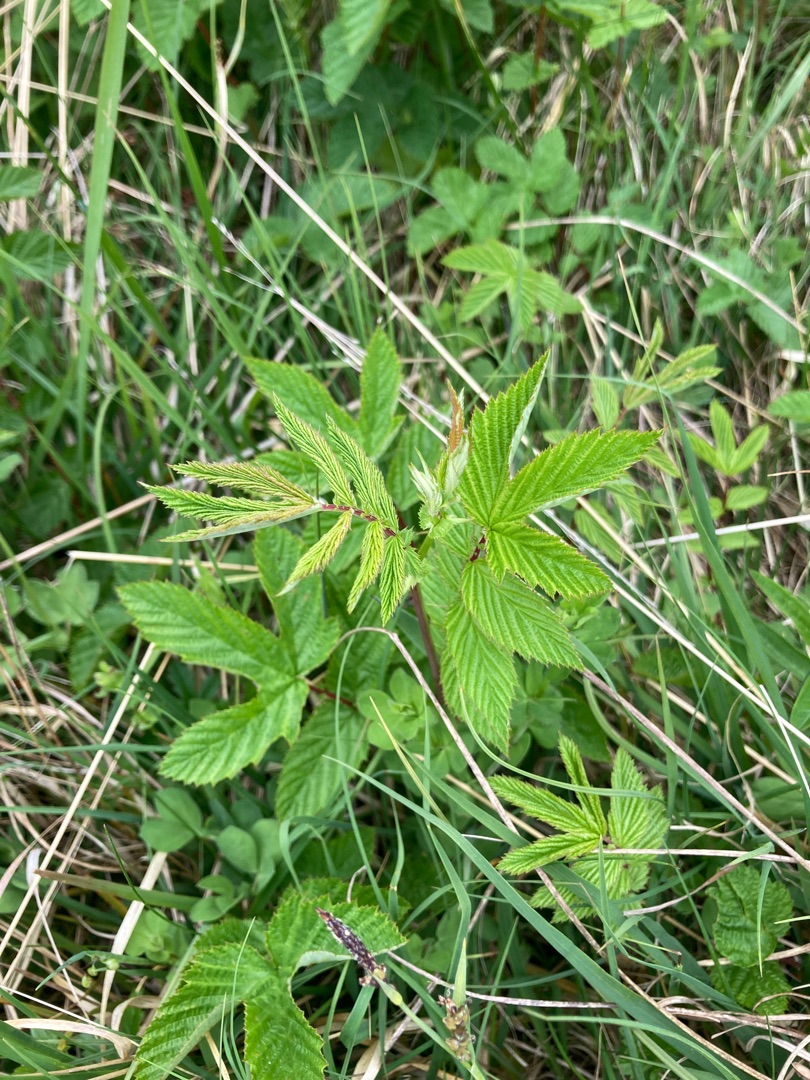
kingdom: Plantae
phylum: Tracheophyta
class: Magnoliopsida
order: Rosales
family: Rosaceae
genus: Filipendula
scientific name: Filipendula ulmaria
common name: Almindelig mjødurt
